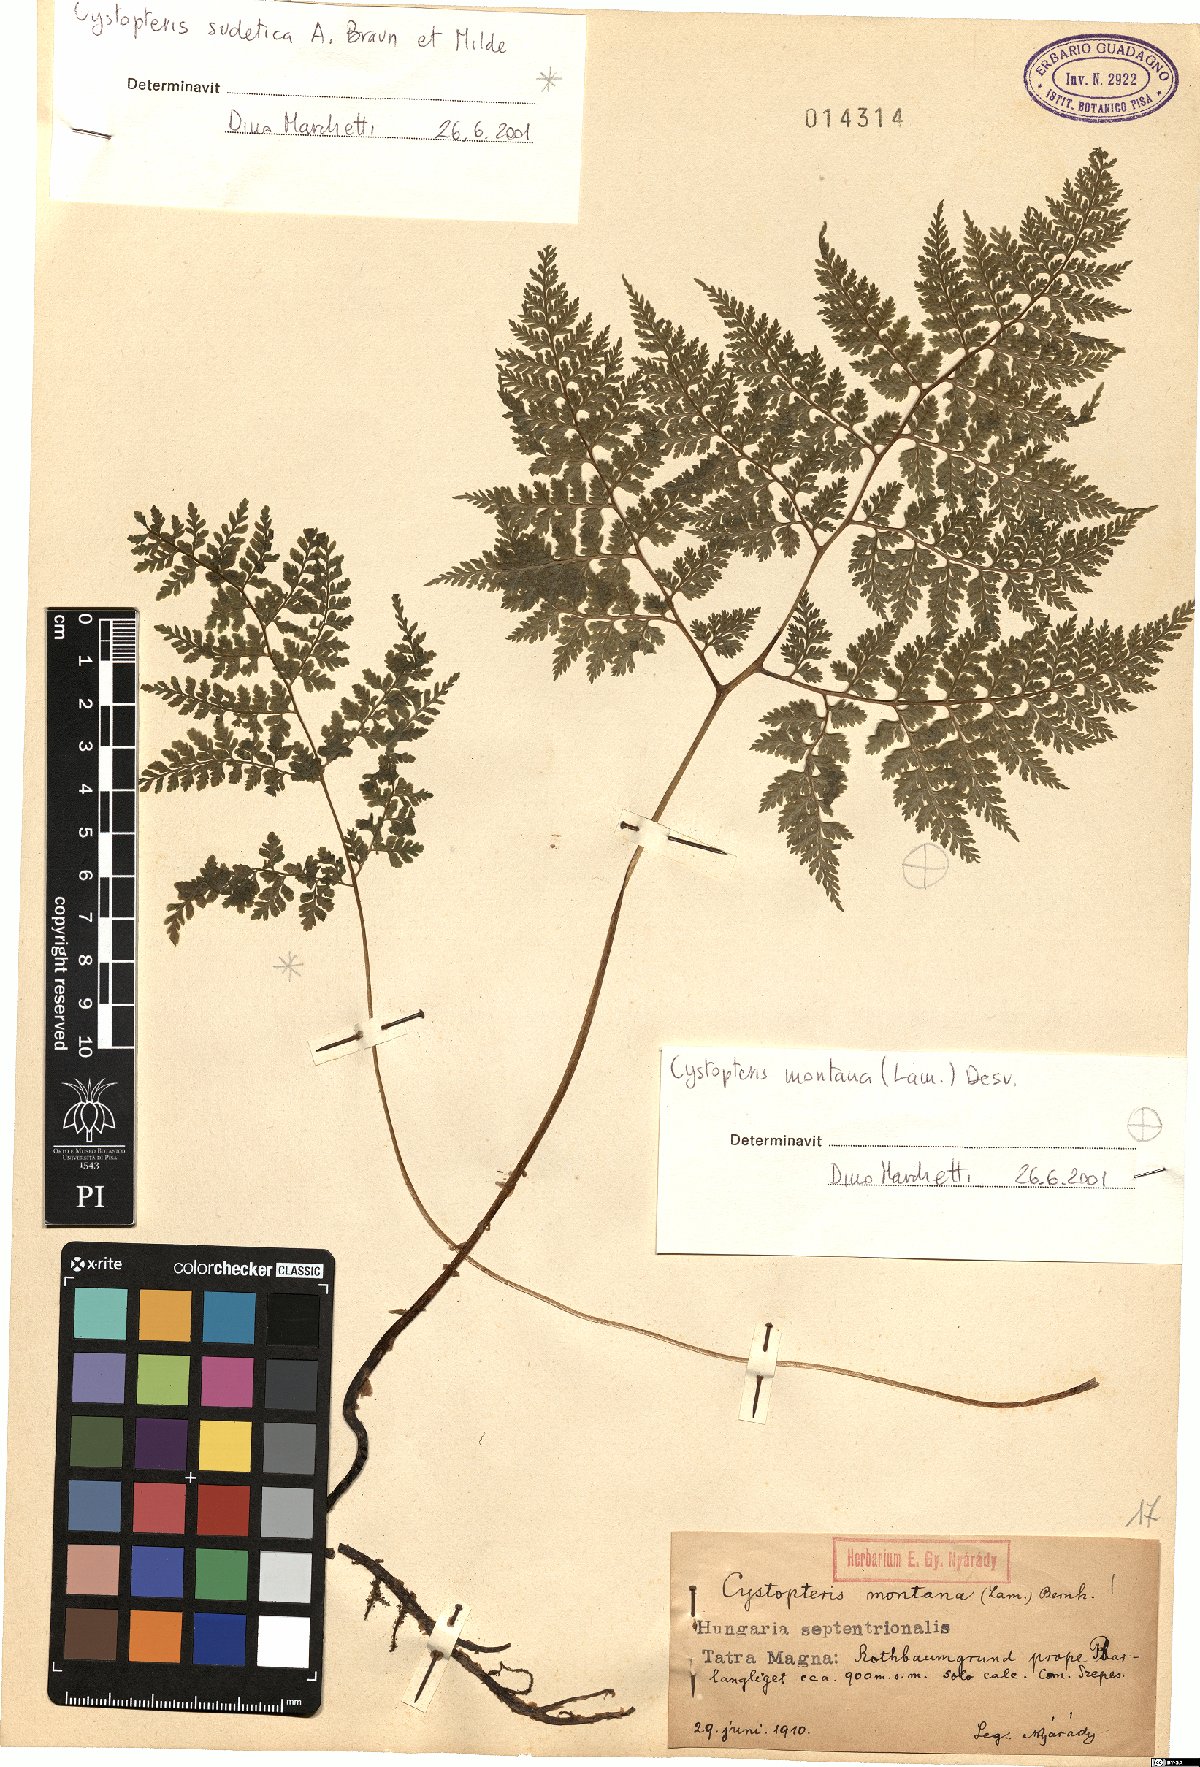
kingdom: Plantae
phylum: Tracheophyta
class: Polypodiopsida
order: Polypodiales
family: Cystopteridaceae
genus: Cystopteris
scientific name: Cystopteris montana
